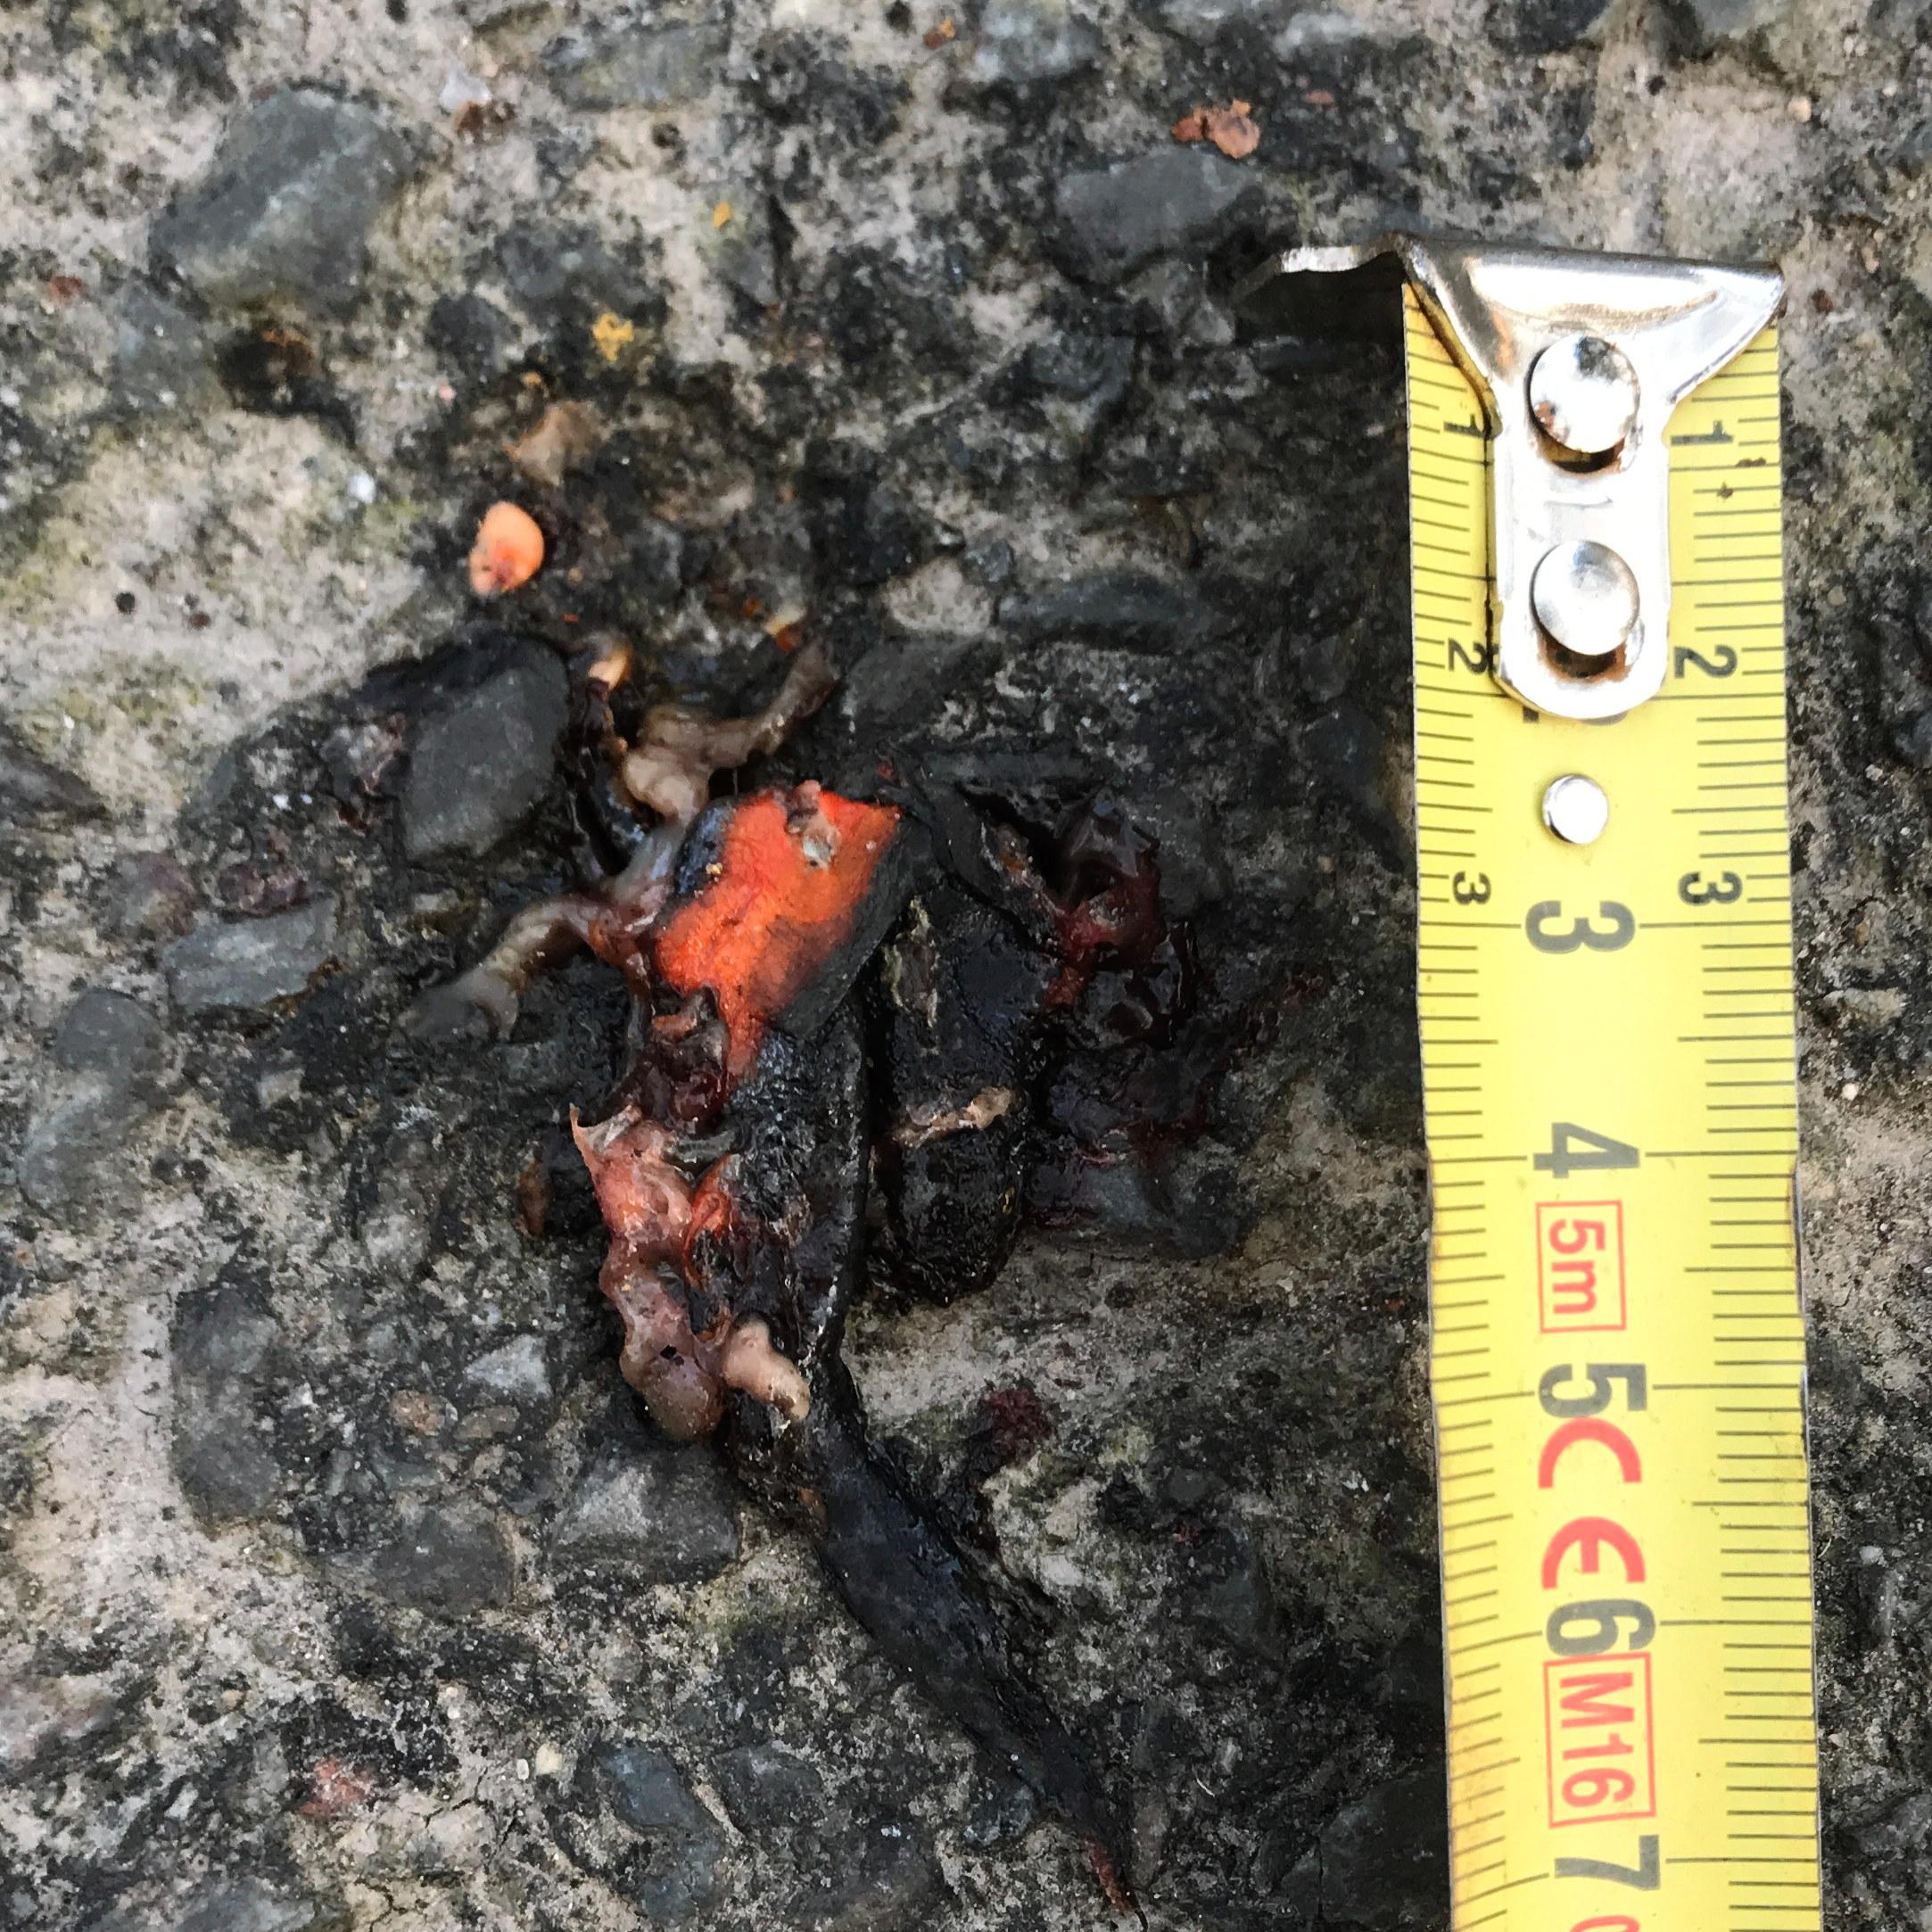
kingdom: Animalia
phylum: Chordata
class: Amphibia
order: Caudata
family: Salamandridae
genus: Ichthyosaura
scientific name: Ichthyosaura alpestris
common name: Alpine newt
